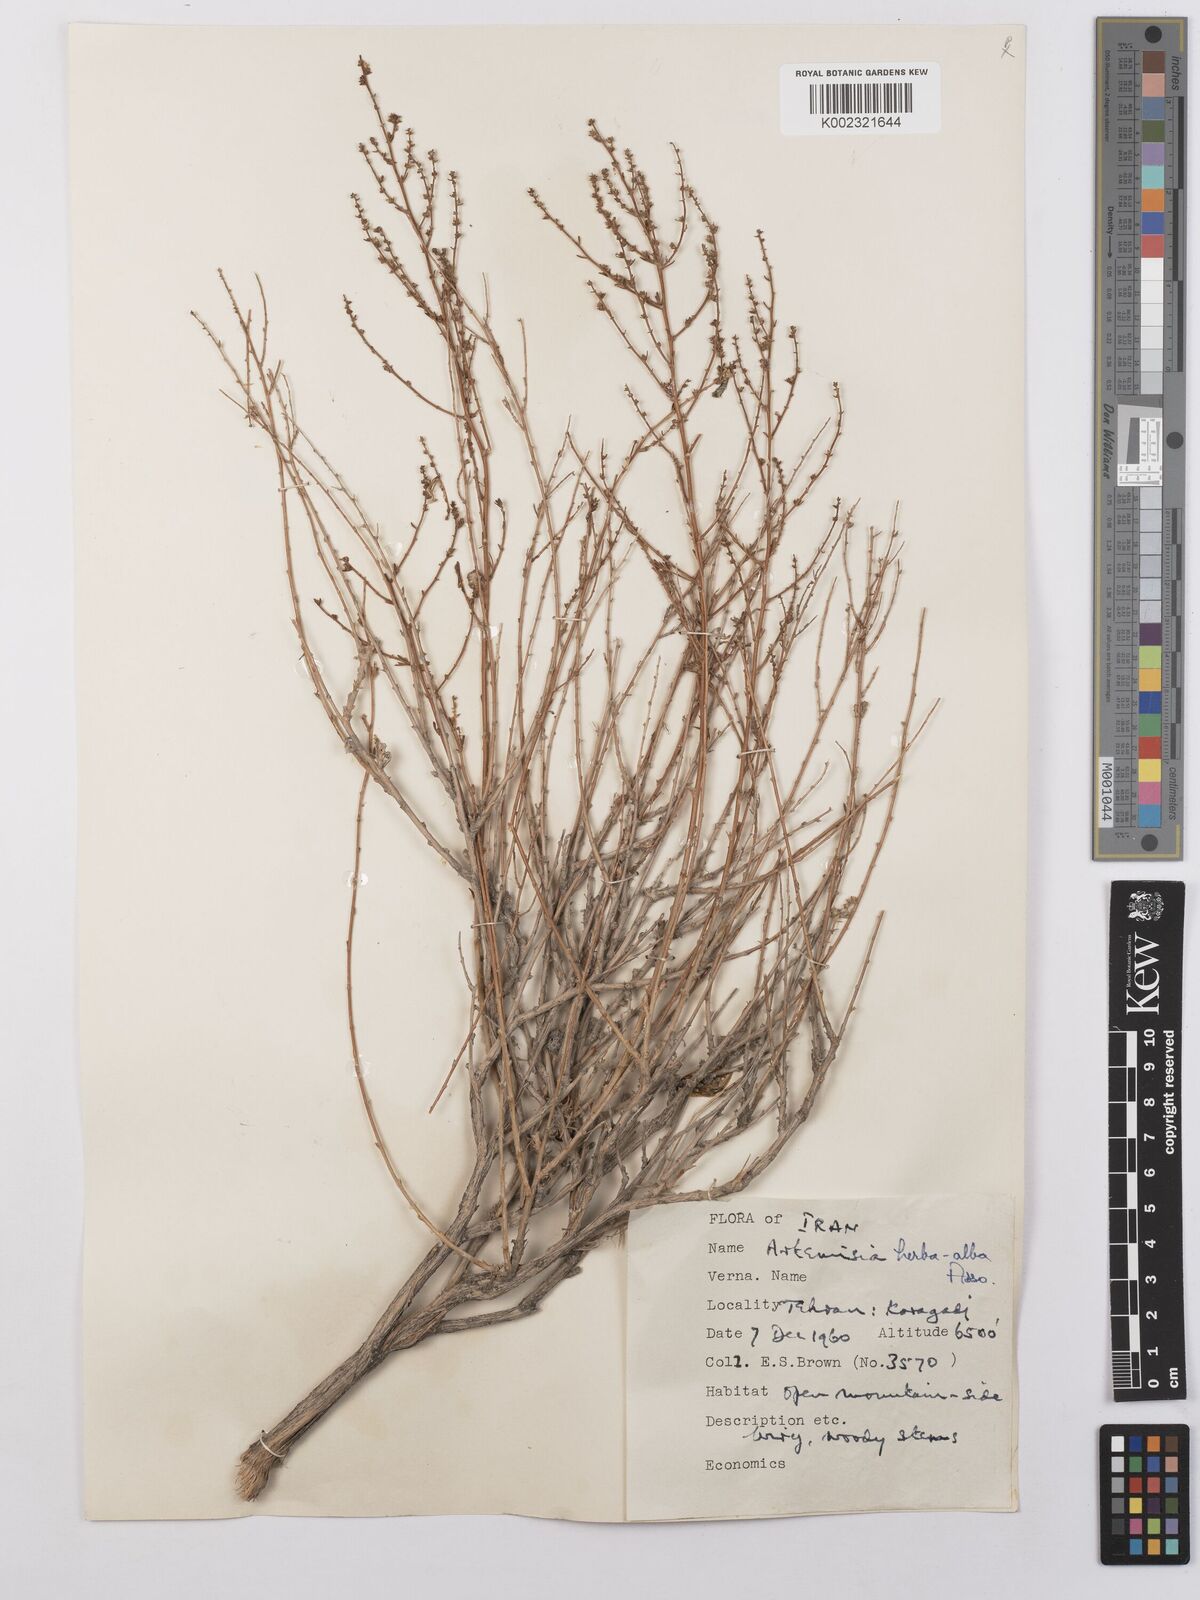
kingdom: Plantae
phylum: Tracheophyta
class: Magnoliopsida
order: Asterales
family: Asteraceae
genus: Artemisia
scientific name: Artemisia herba-alba
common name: White wormwood
